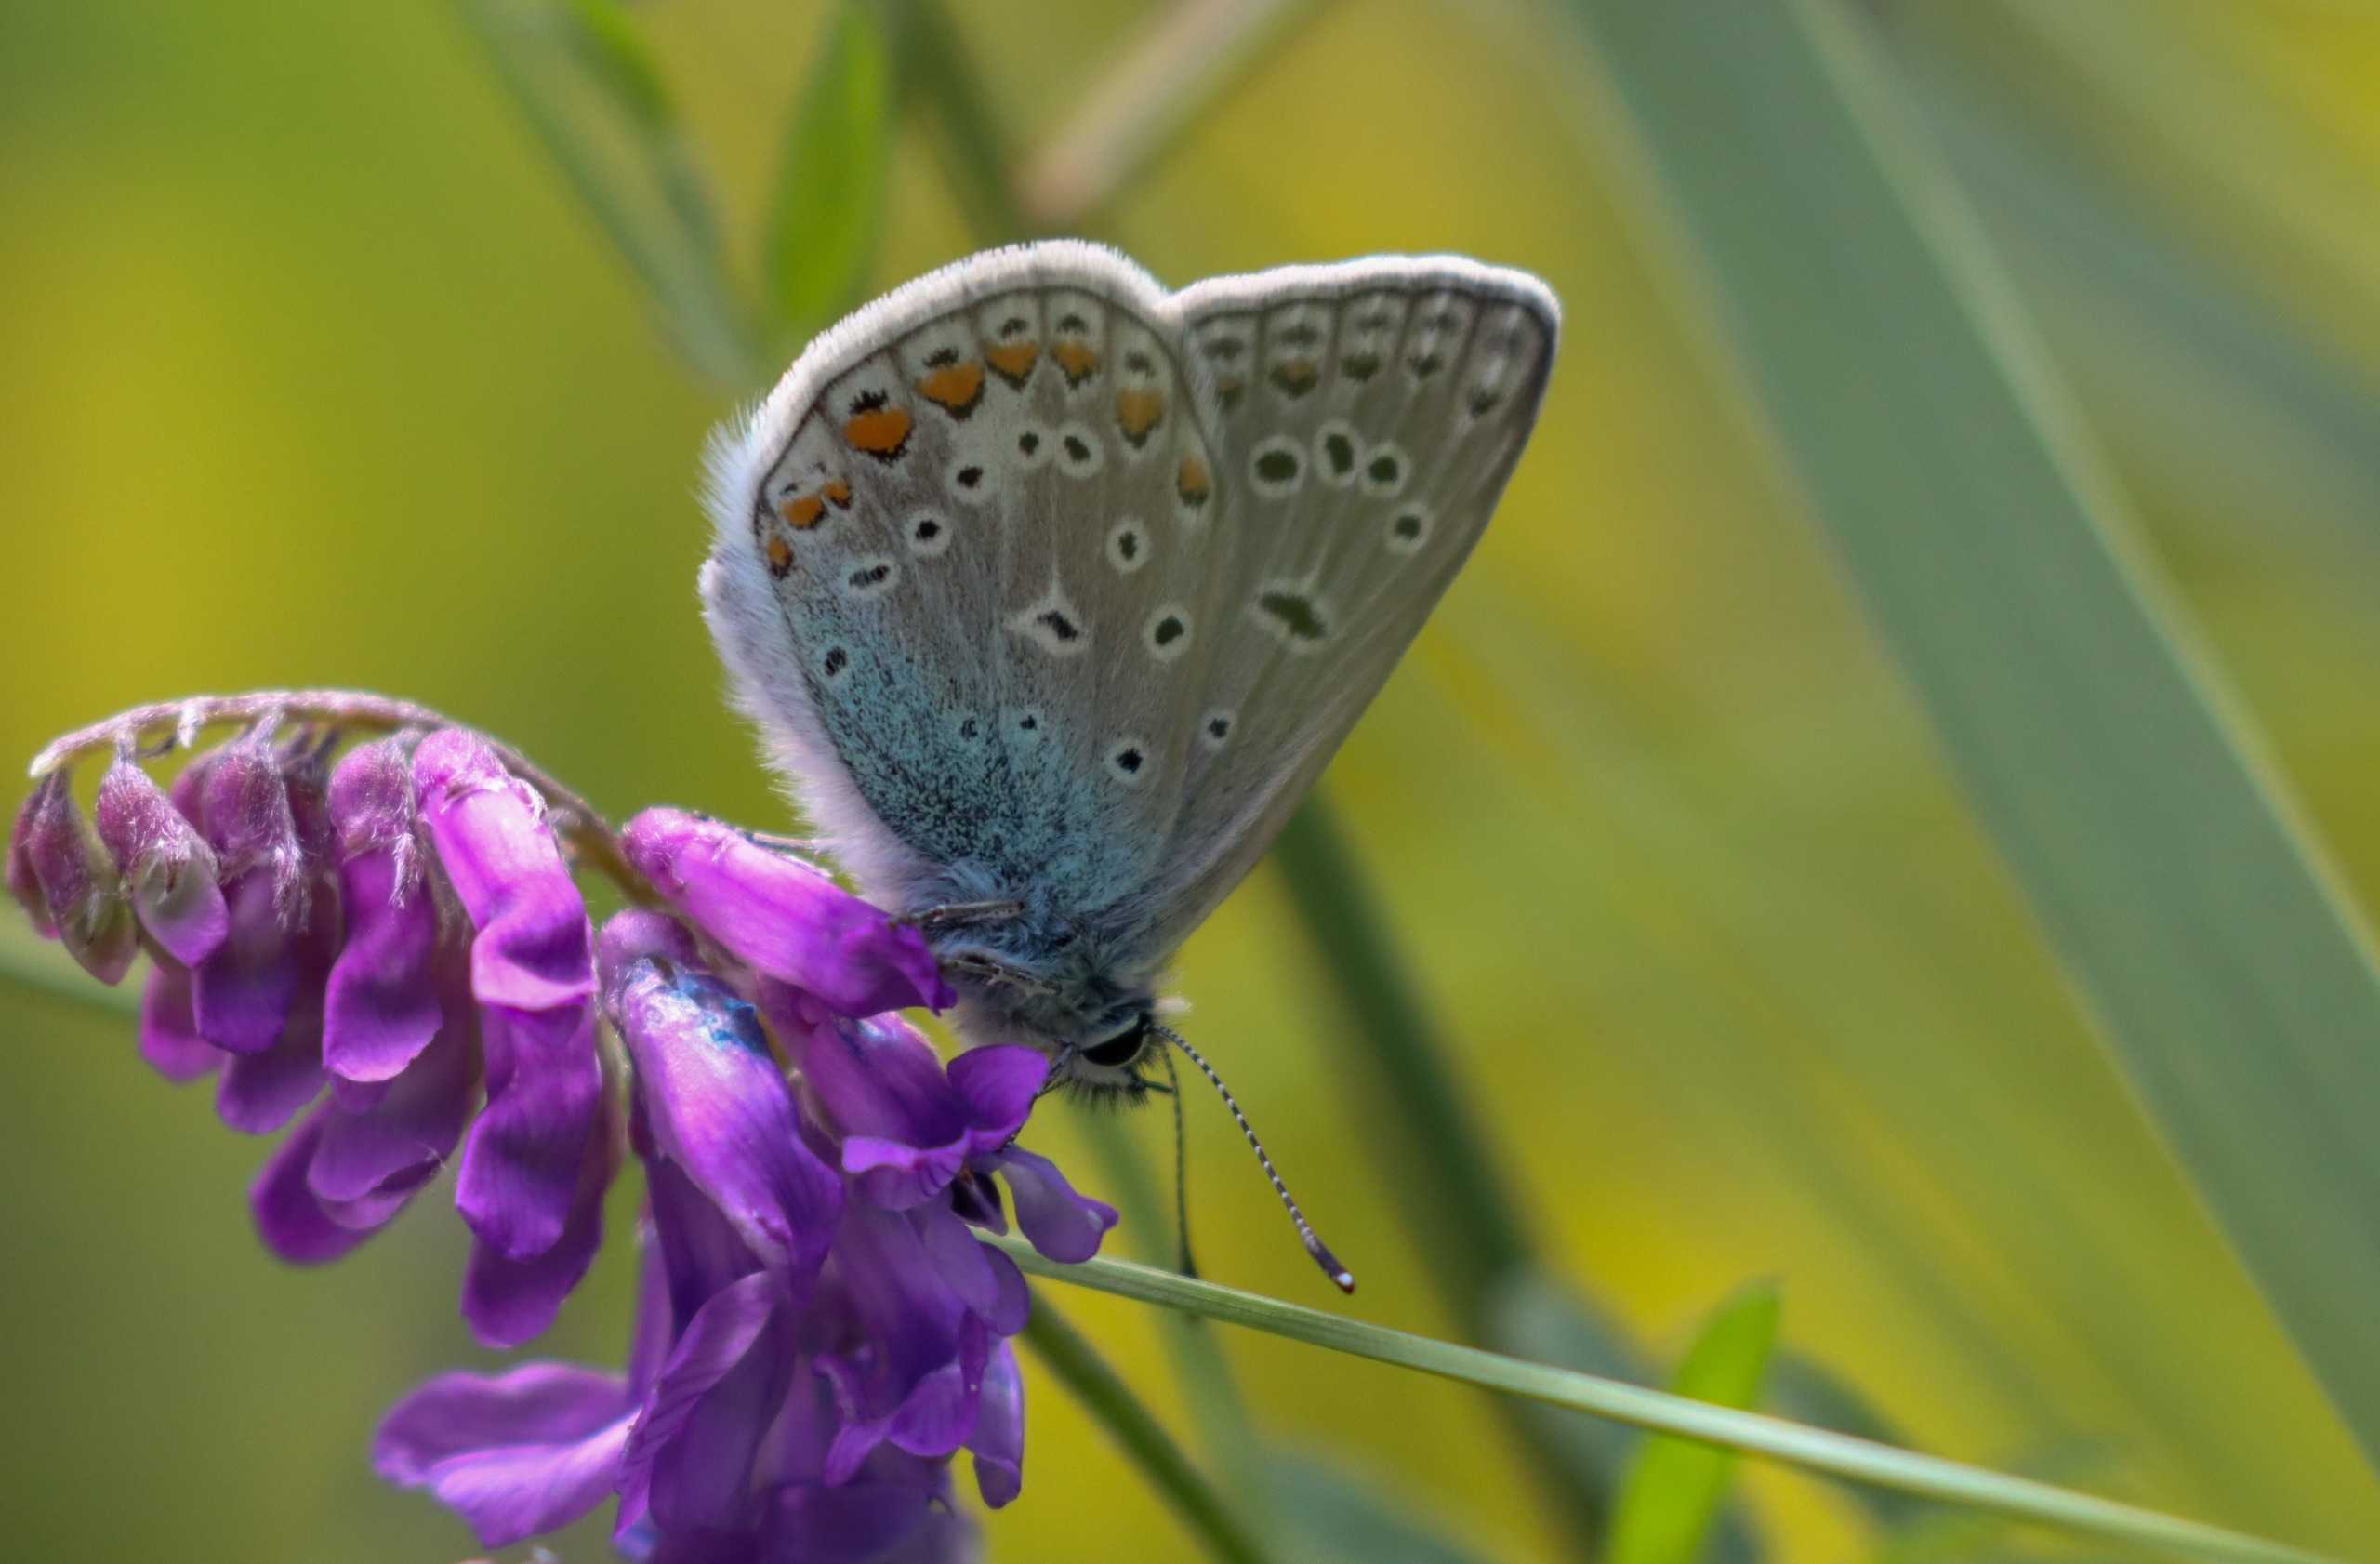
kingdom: Animalia
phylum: Arthropoda
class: Insecta
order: Lepidoptera
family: Lycaenidae
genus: Polyommatus
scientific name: Polyommatus icarus
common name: Almindelig blåfugl
